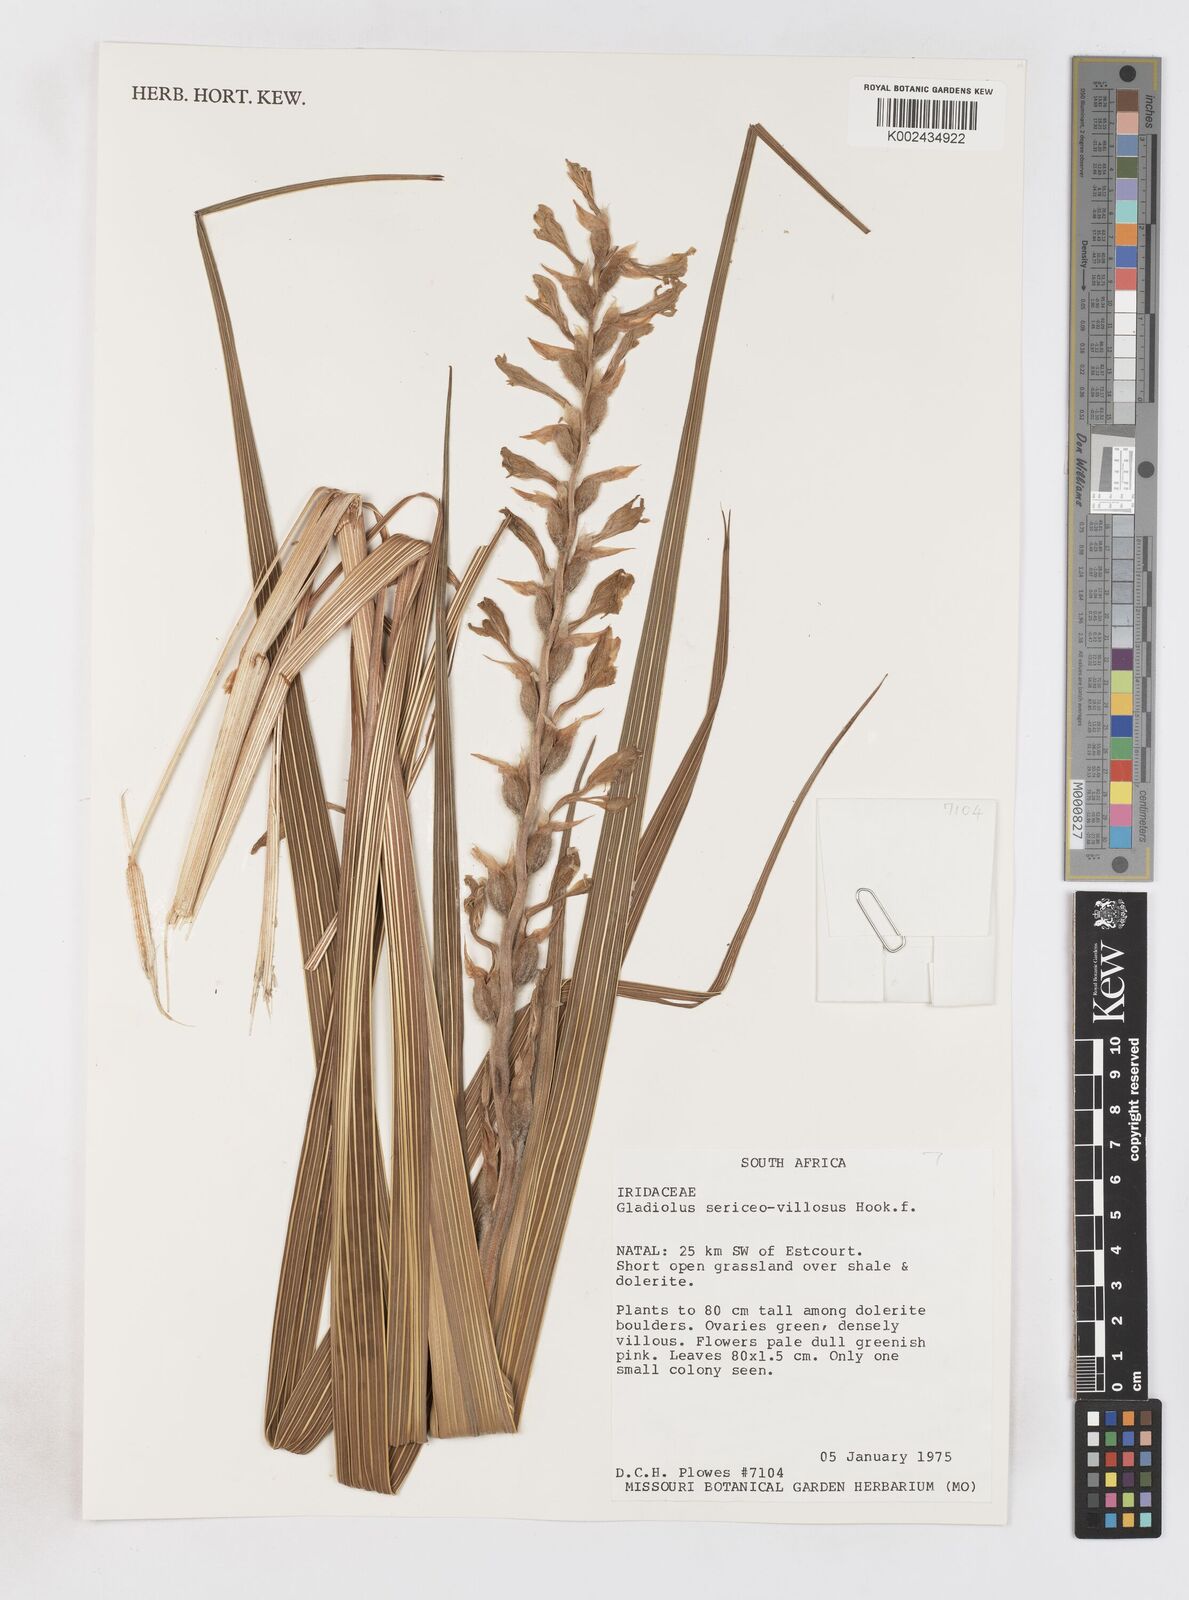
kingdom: Plantae
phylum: Tracheophyta
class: Liliopsida
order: Asparagales
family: Iridaceae
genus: Gladiolus
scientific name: Gladiolus sericeovillosus
